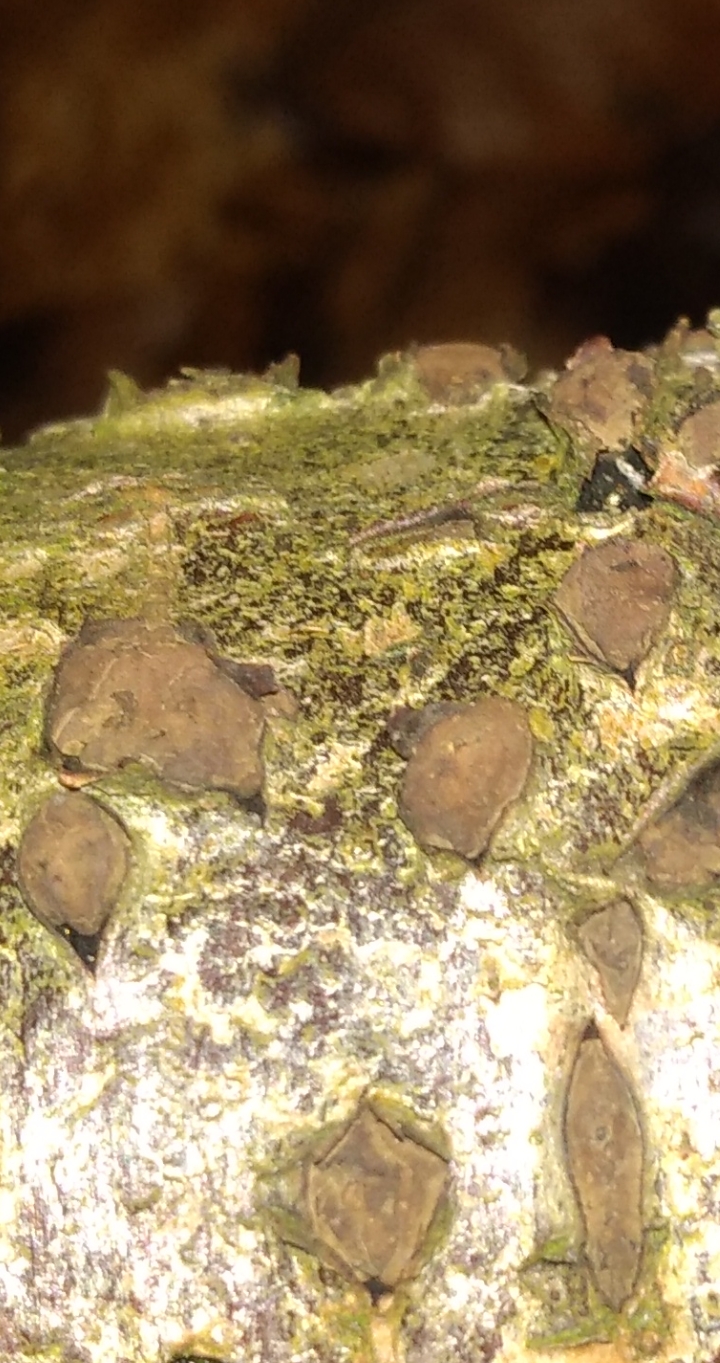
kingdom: Fungi
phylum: Ascomycota
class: Sordariomycetes
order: Xylariales
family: Hypoxylaceae
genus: Hypoxylon
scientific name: Hypoxylon
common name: kulbær
